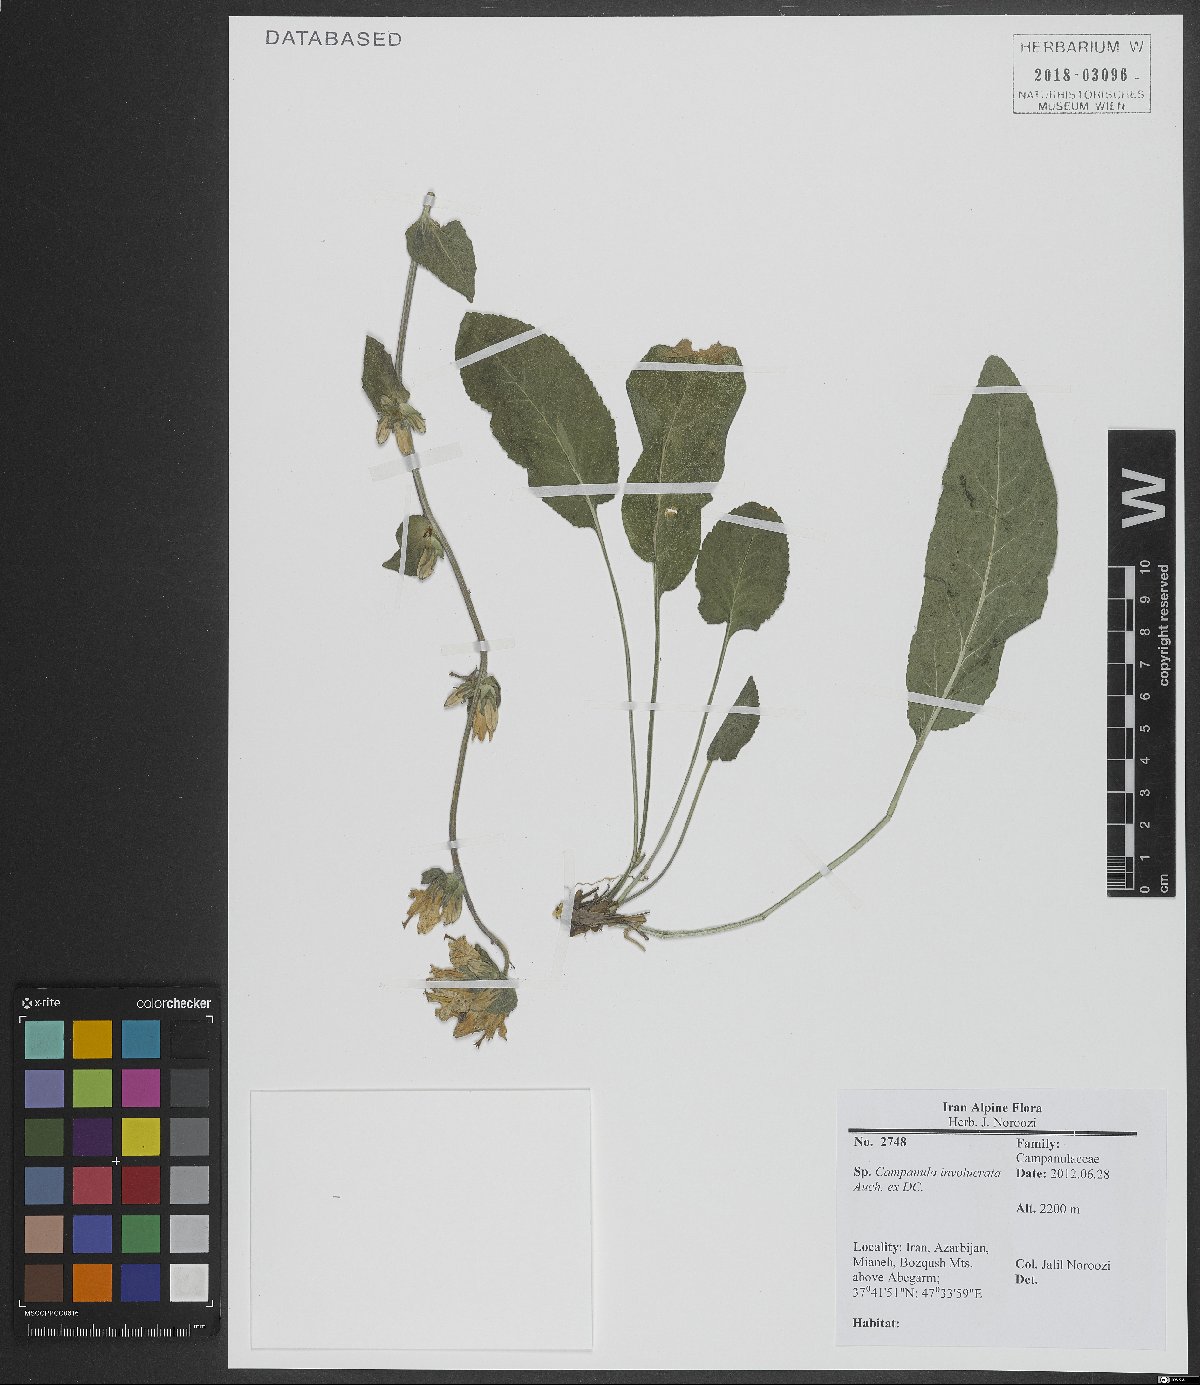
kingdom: Plantae
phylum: Tracheophyta
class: Magnoliopsida
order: Asterales
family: Campanulaceae
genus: Campanula
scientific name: Campanula involucrata
